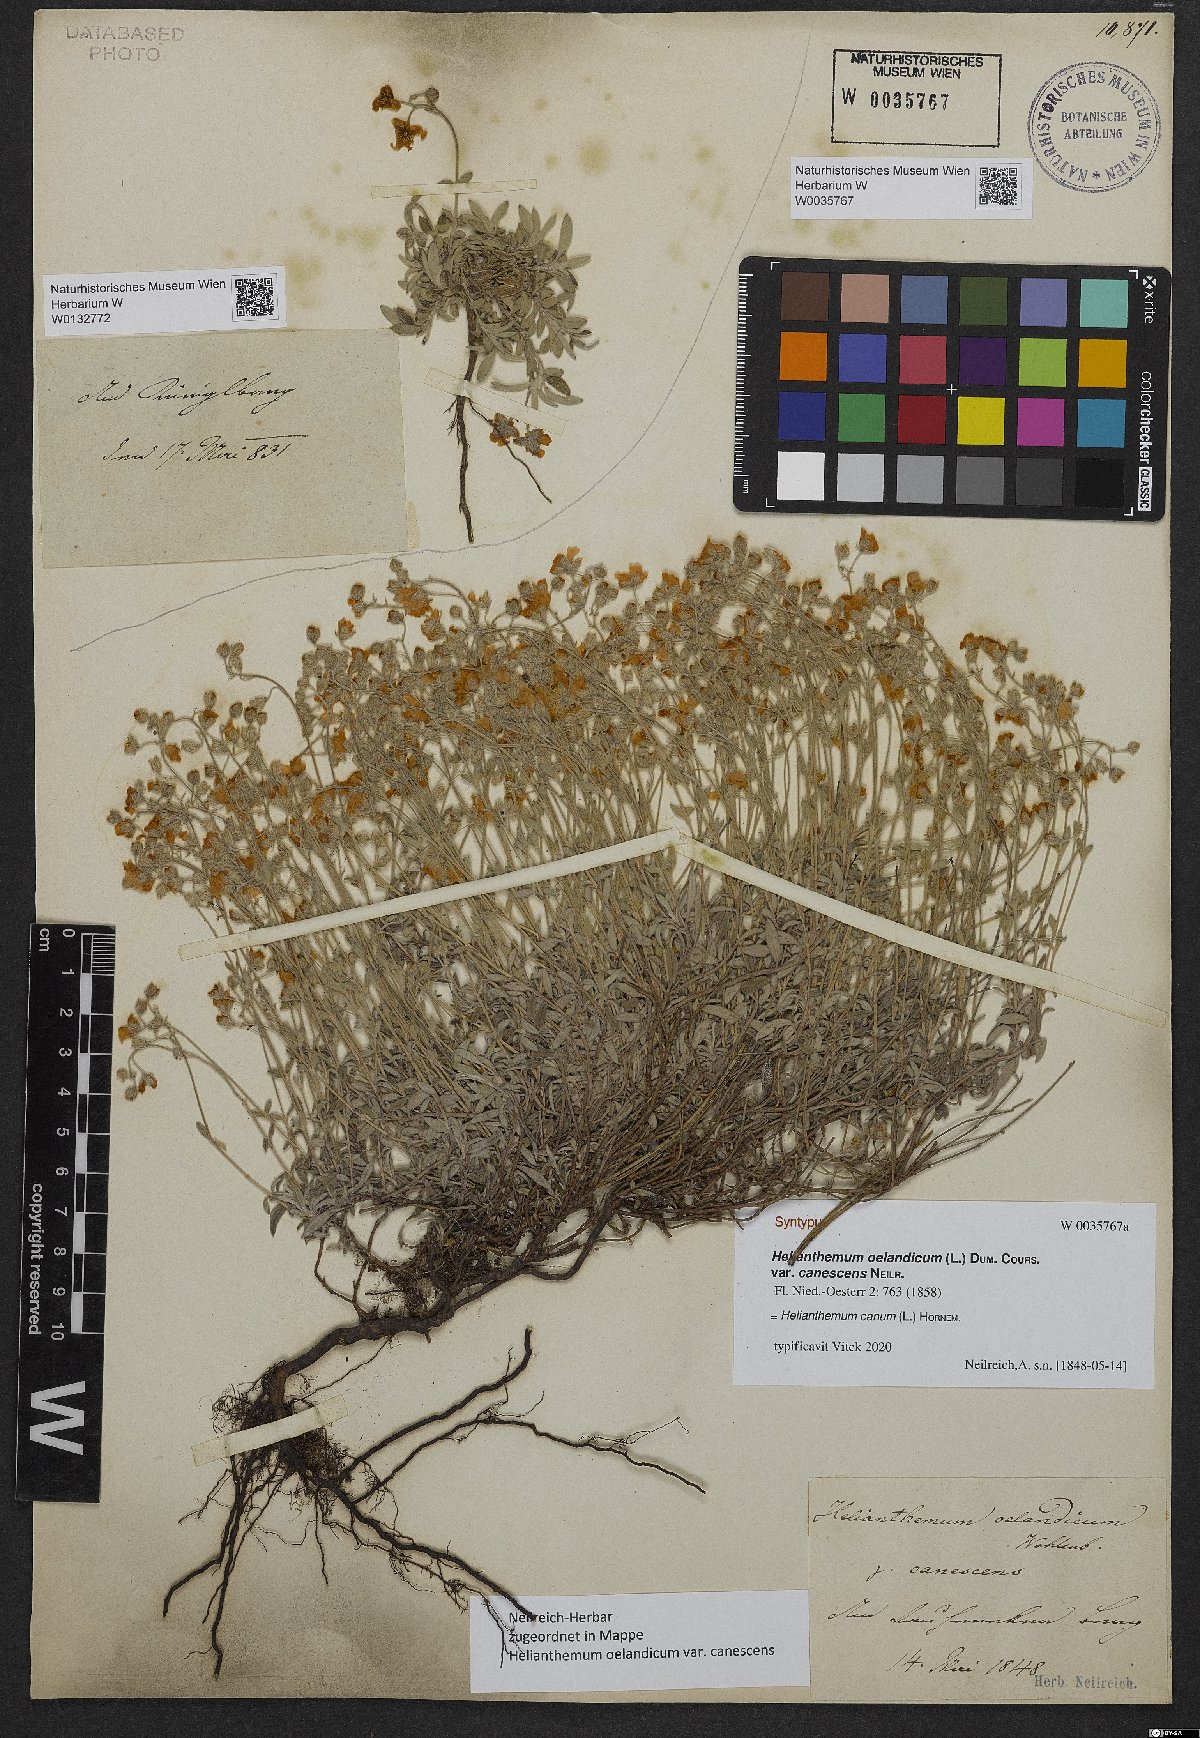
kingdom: Plantae
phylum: Tracheophyta
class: Magnoliopsida
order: Malvales
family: Cistaceae
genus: Helianthemum
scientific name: Helianthemum oelandicum
